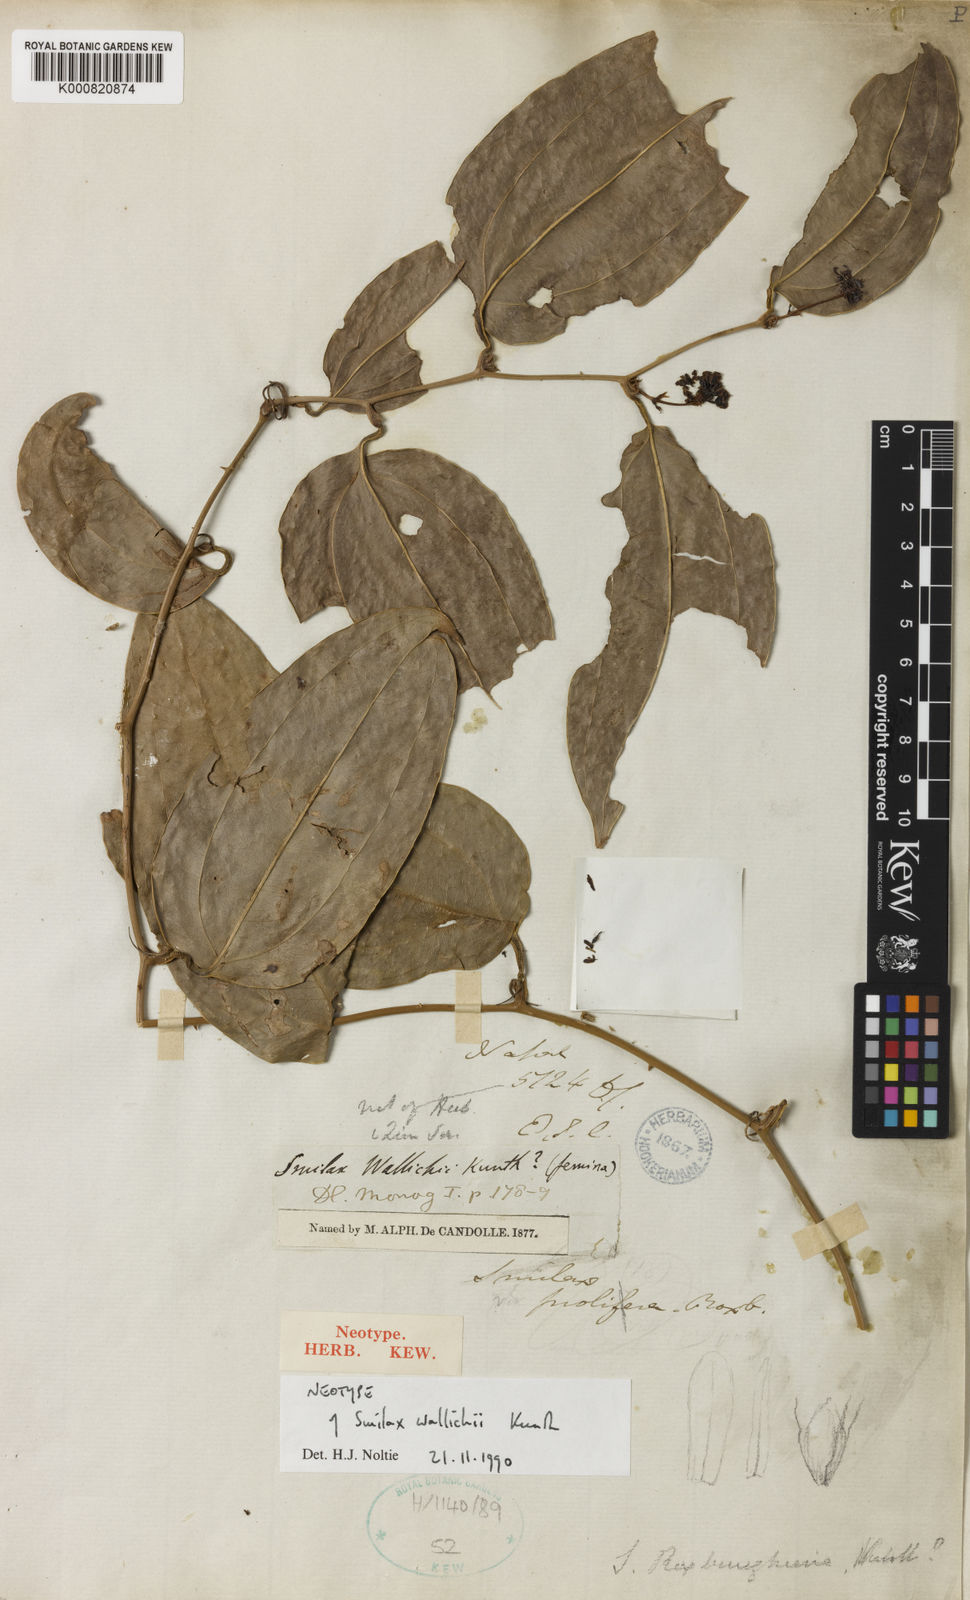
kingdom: Plantae
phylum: Tracheophyta
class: Liliopsida
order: Liliales
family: Smilacaceae
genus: Smilax
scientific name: Smilax wallichii
